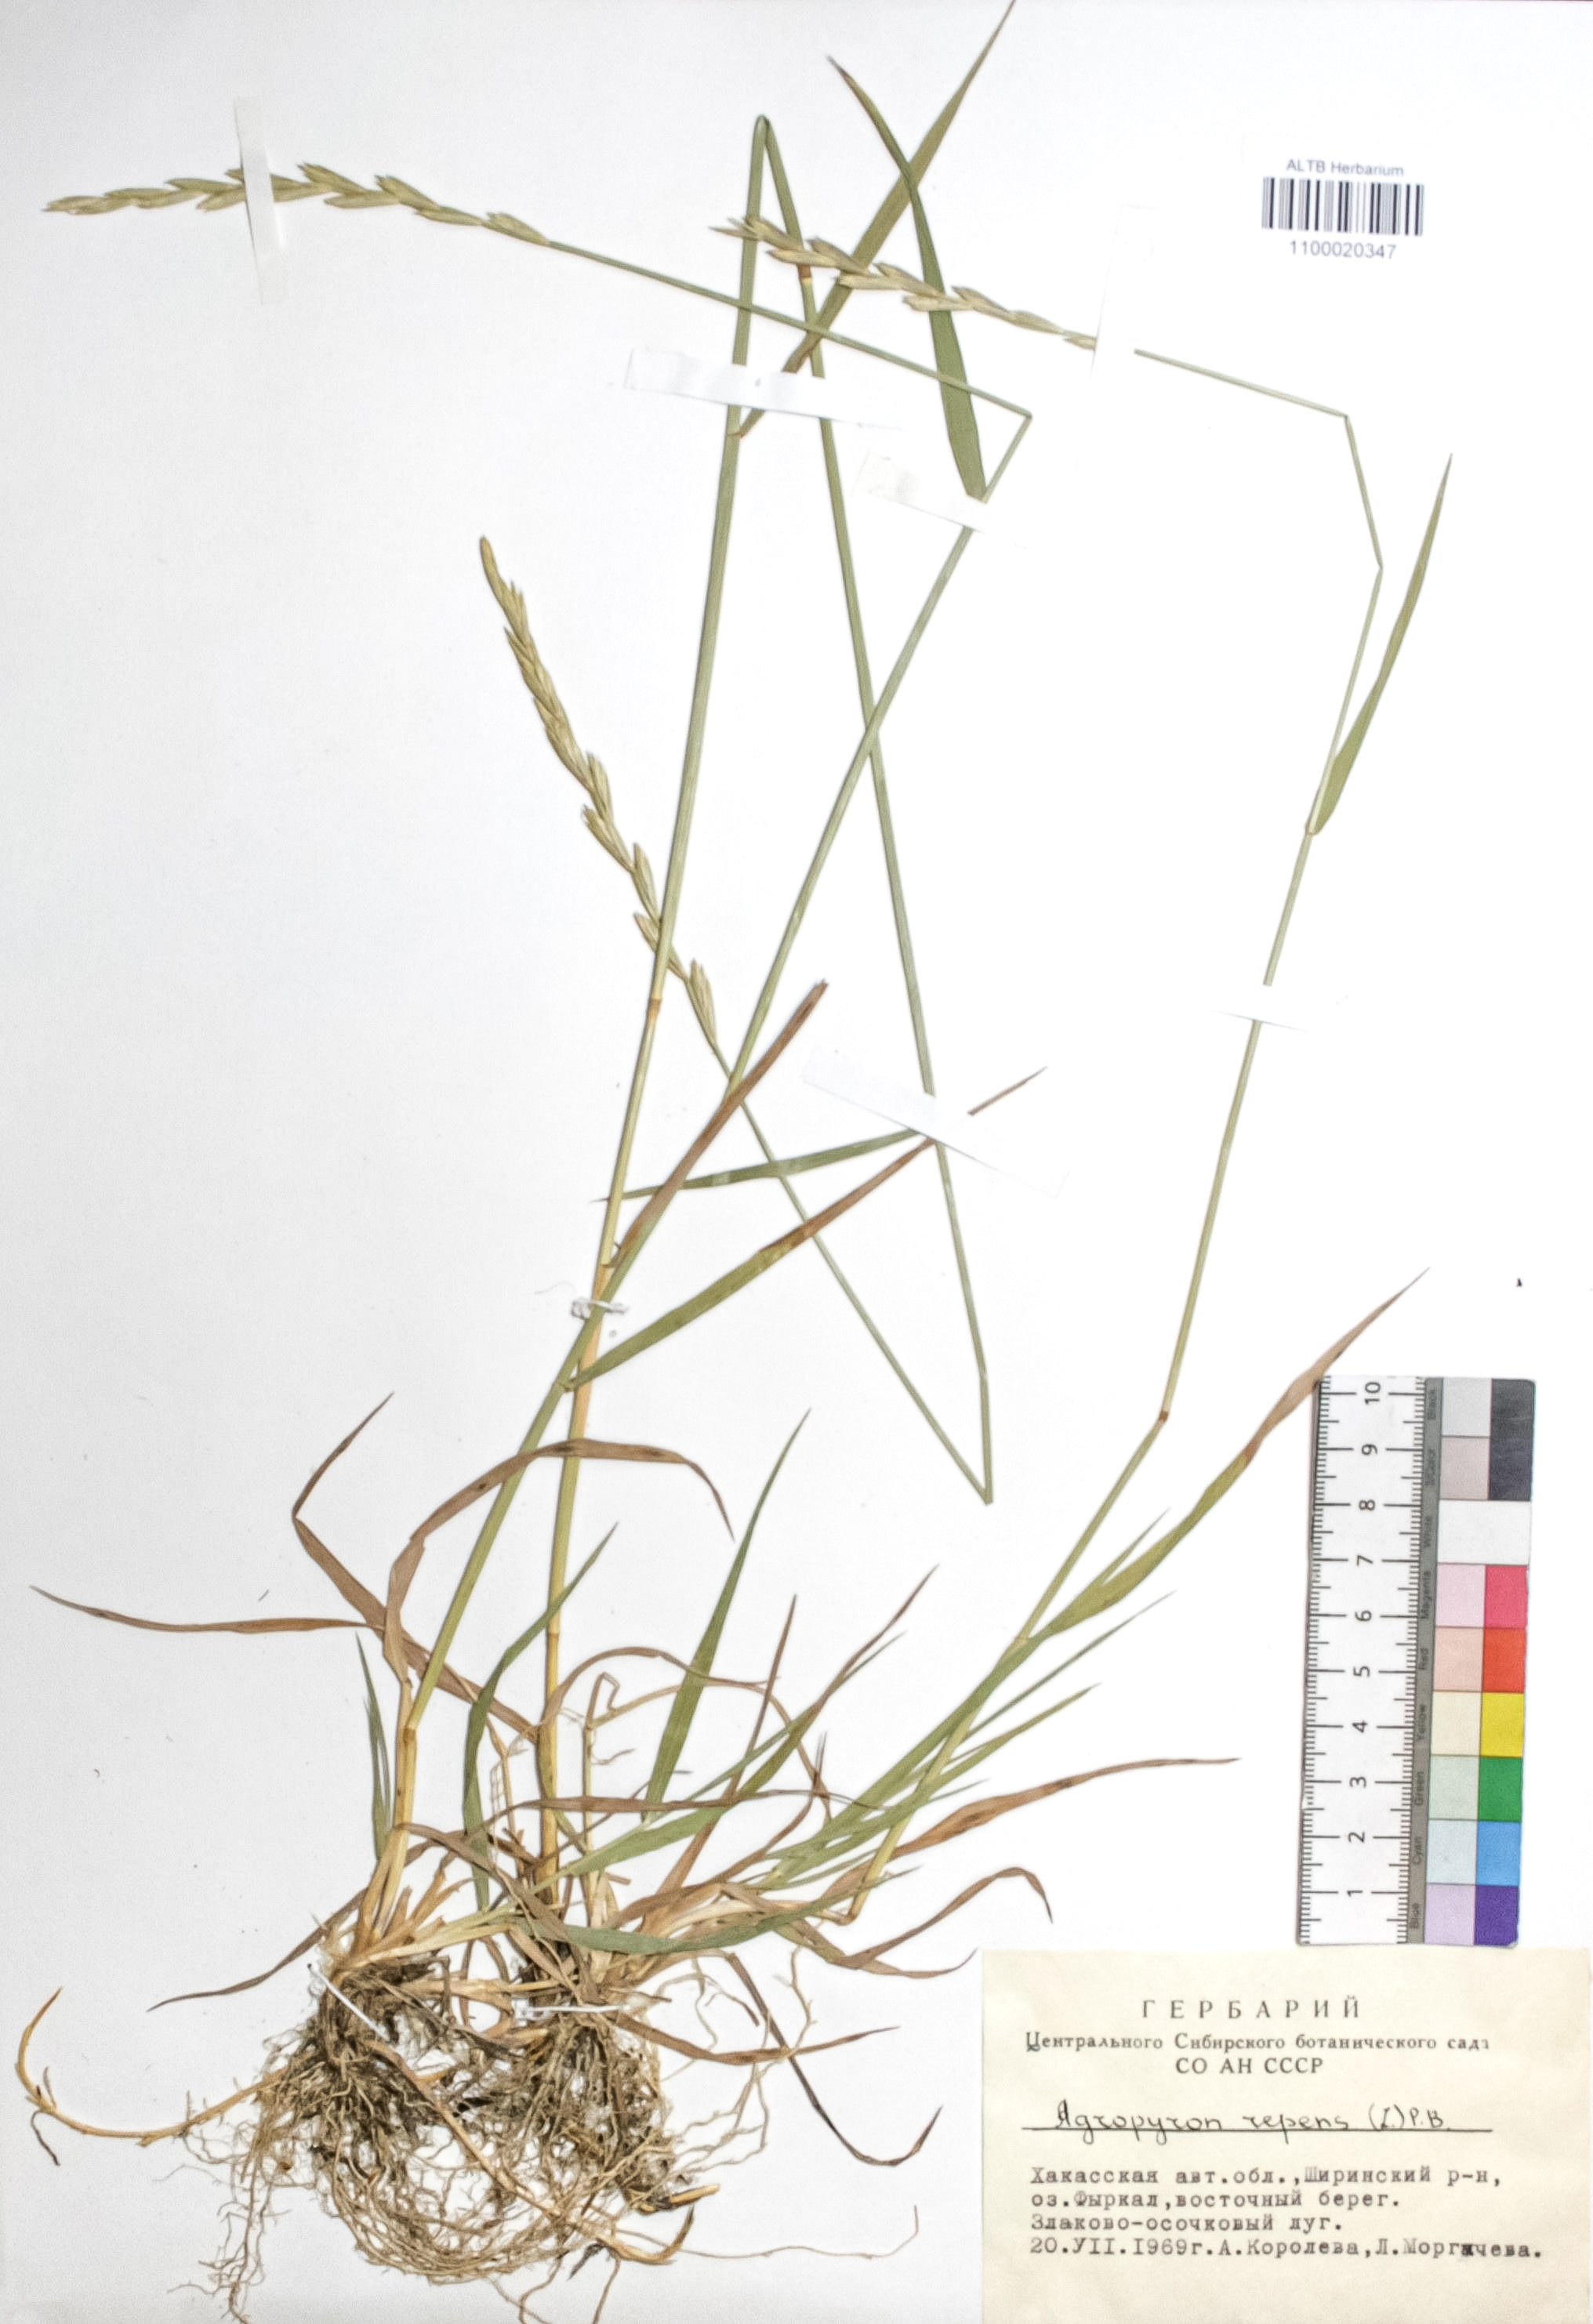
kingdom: Plantae
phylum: Tracheophyta
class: Liliopsida
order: Poales
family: Poaceae
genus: Elymus
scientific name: Elymus repens
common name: Quackgrass
